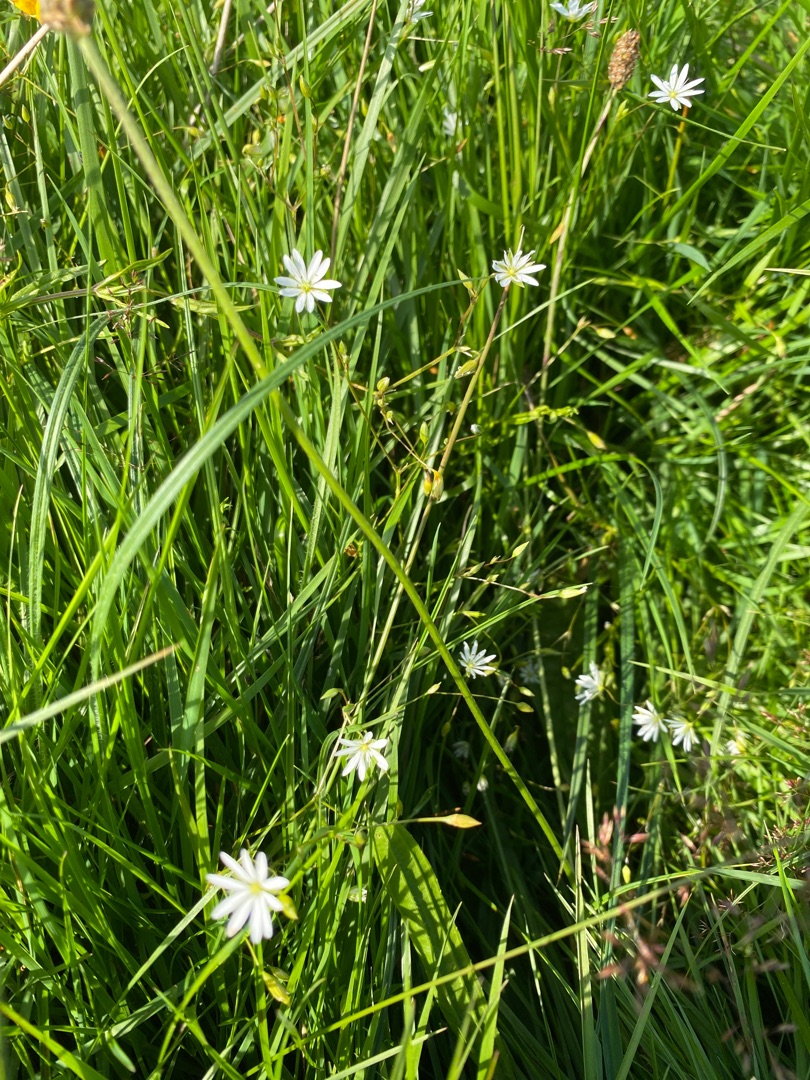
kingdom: Plantae
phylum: Tracheophyta
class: Magnoliopsida
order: Caryophyllales
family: Caryophyllaceae
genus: Stellaria
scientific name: Stellaria graminea
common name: Græsbladet fladstjerne
